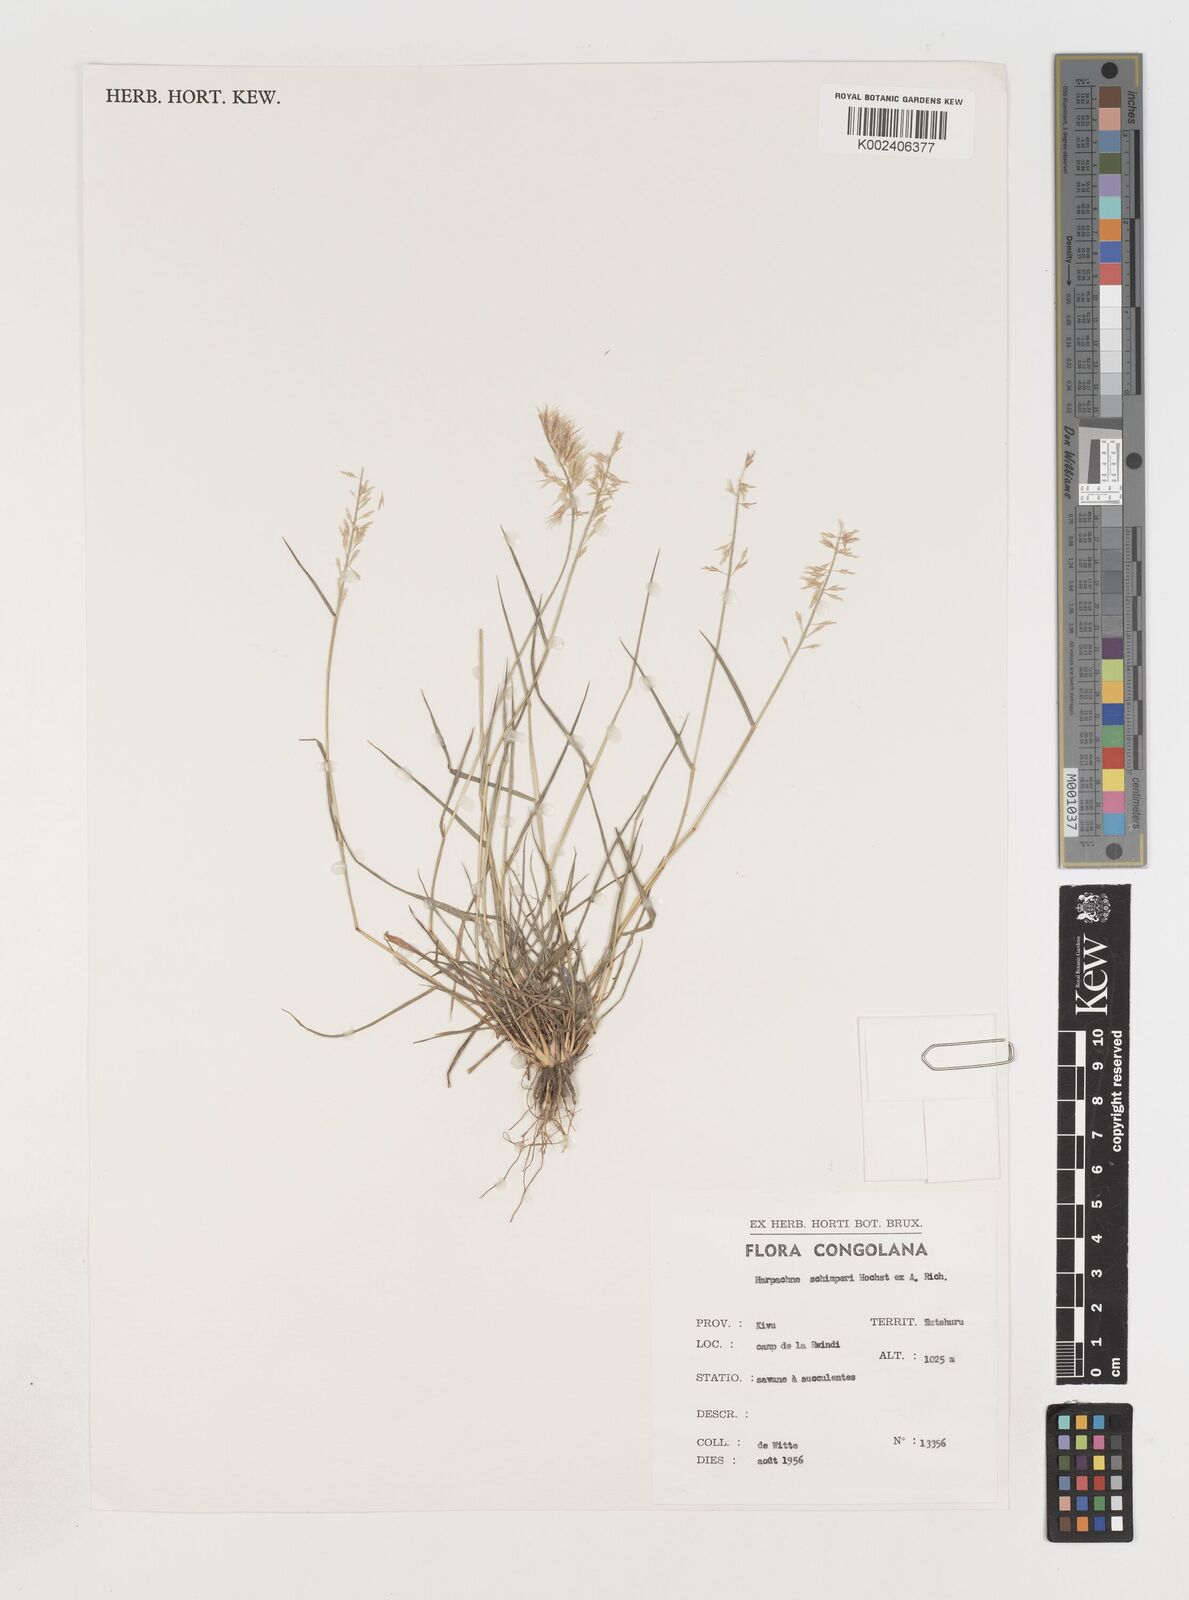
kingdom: Plantae
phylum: Tracheophyta
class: Liliopsida
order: Poales
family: Poaceae
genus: Harpachne
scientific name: Harpachne schimperi
